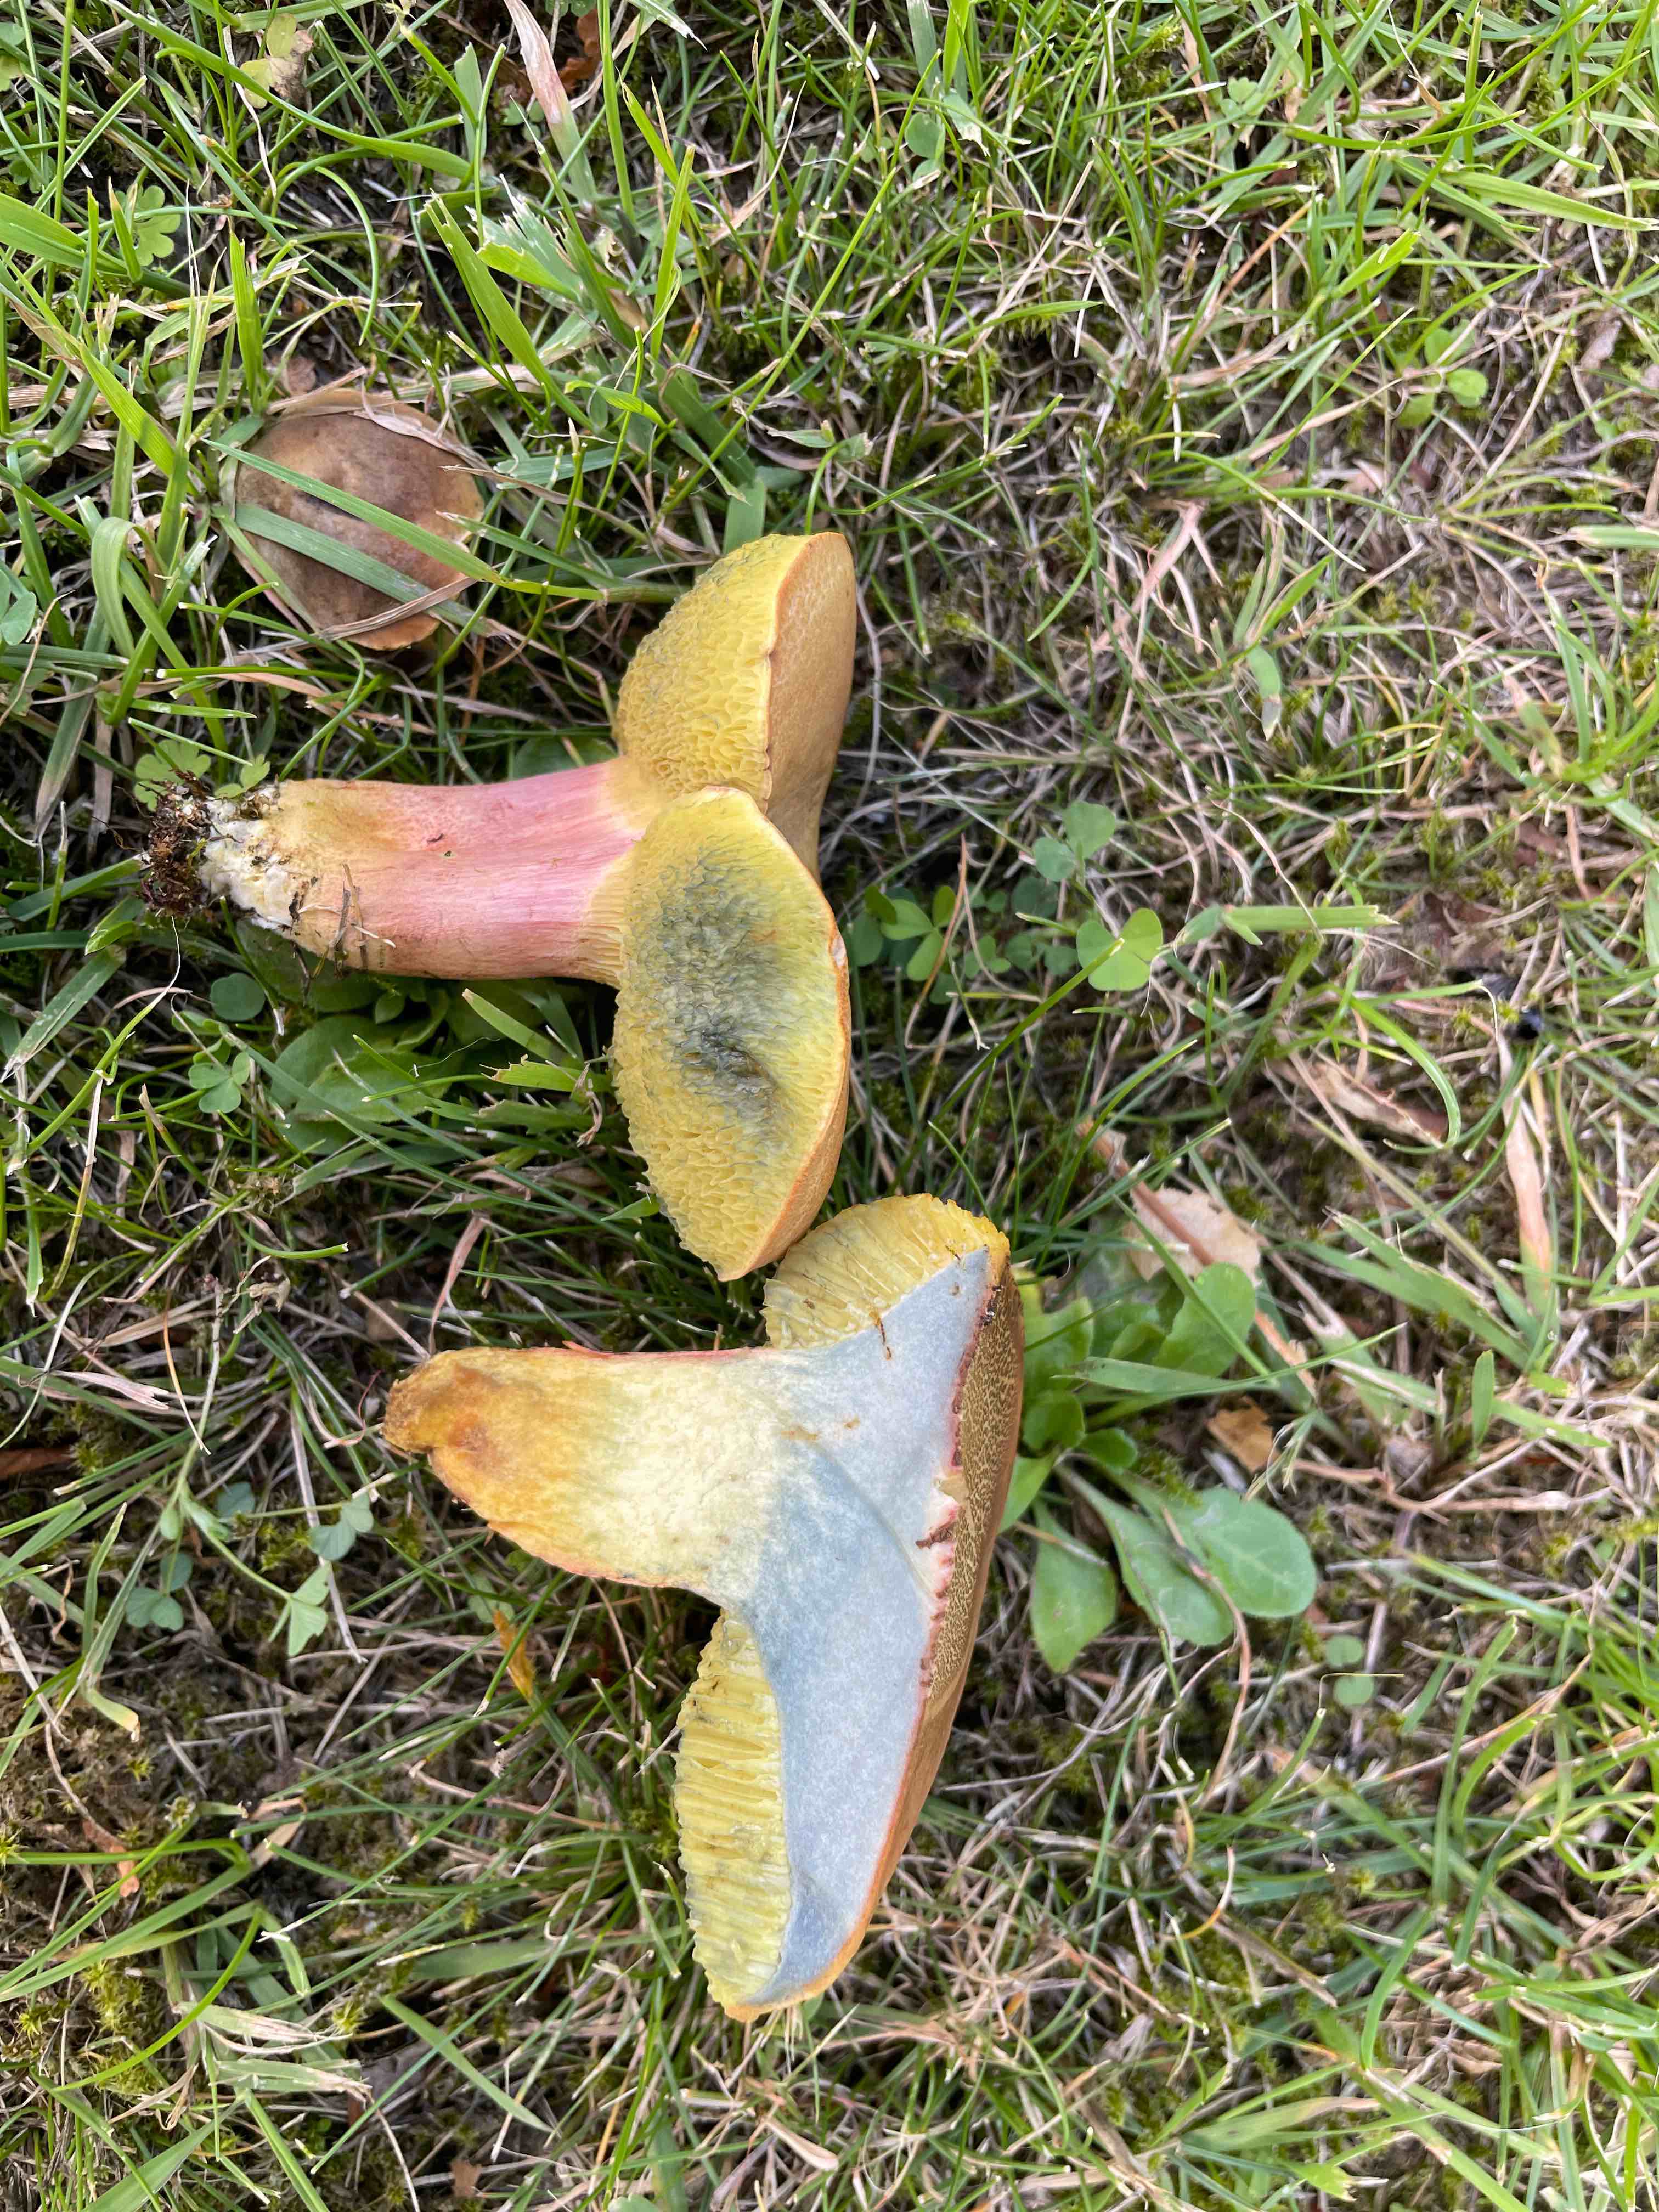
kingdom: Fungi
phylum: Basidiomycota
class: Agaricomycetes
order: Boletales
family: Boletaceae
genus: Hortiboletus
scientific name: Hortiboletus bubalinus
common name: aurora-rørhat
